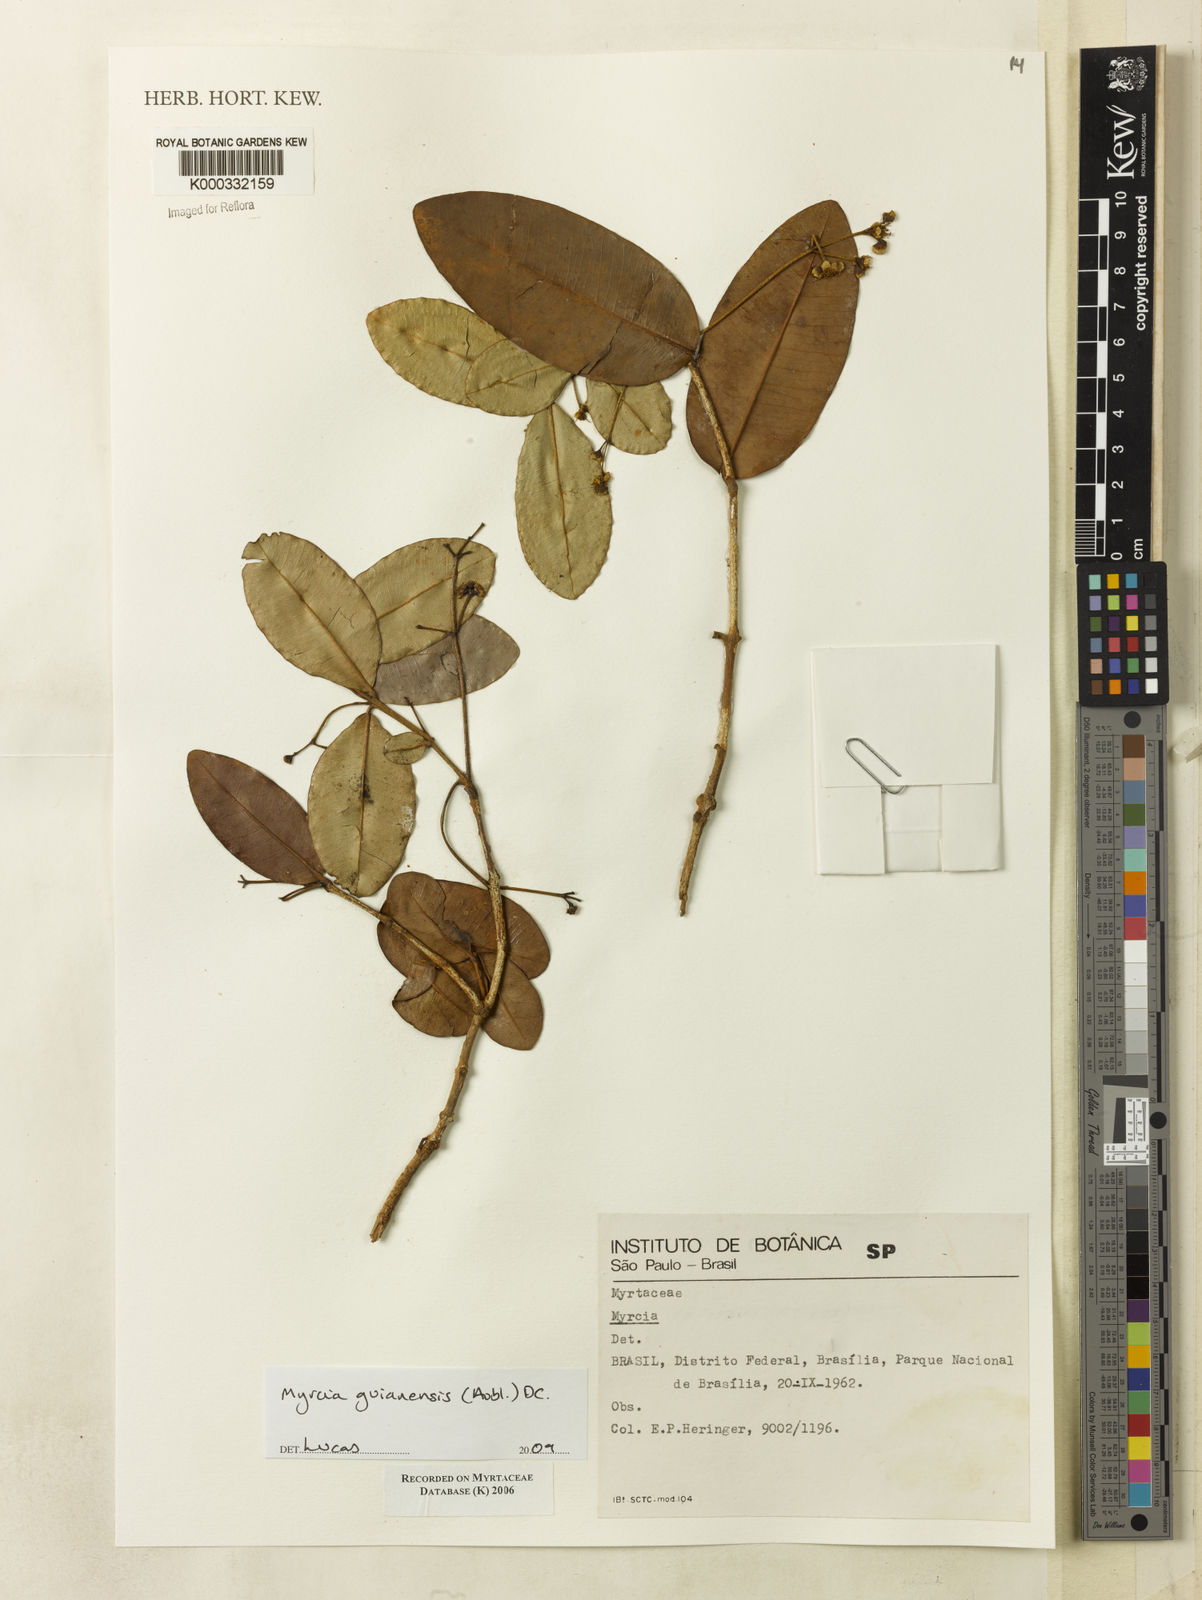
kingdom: Plantae
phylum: Tracheophyta
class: Magnoliopsida
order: Myrtales
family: Myrtaceae
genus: Myrcia
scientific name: Myrcia decorticans
